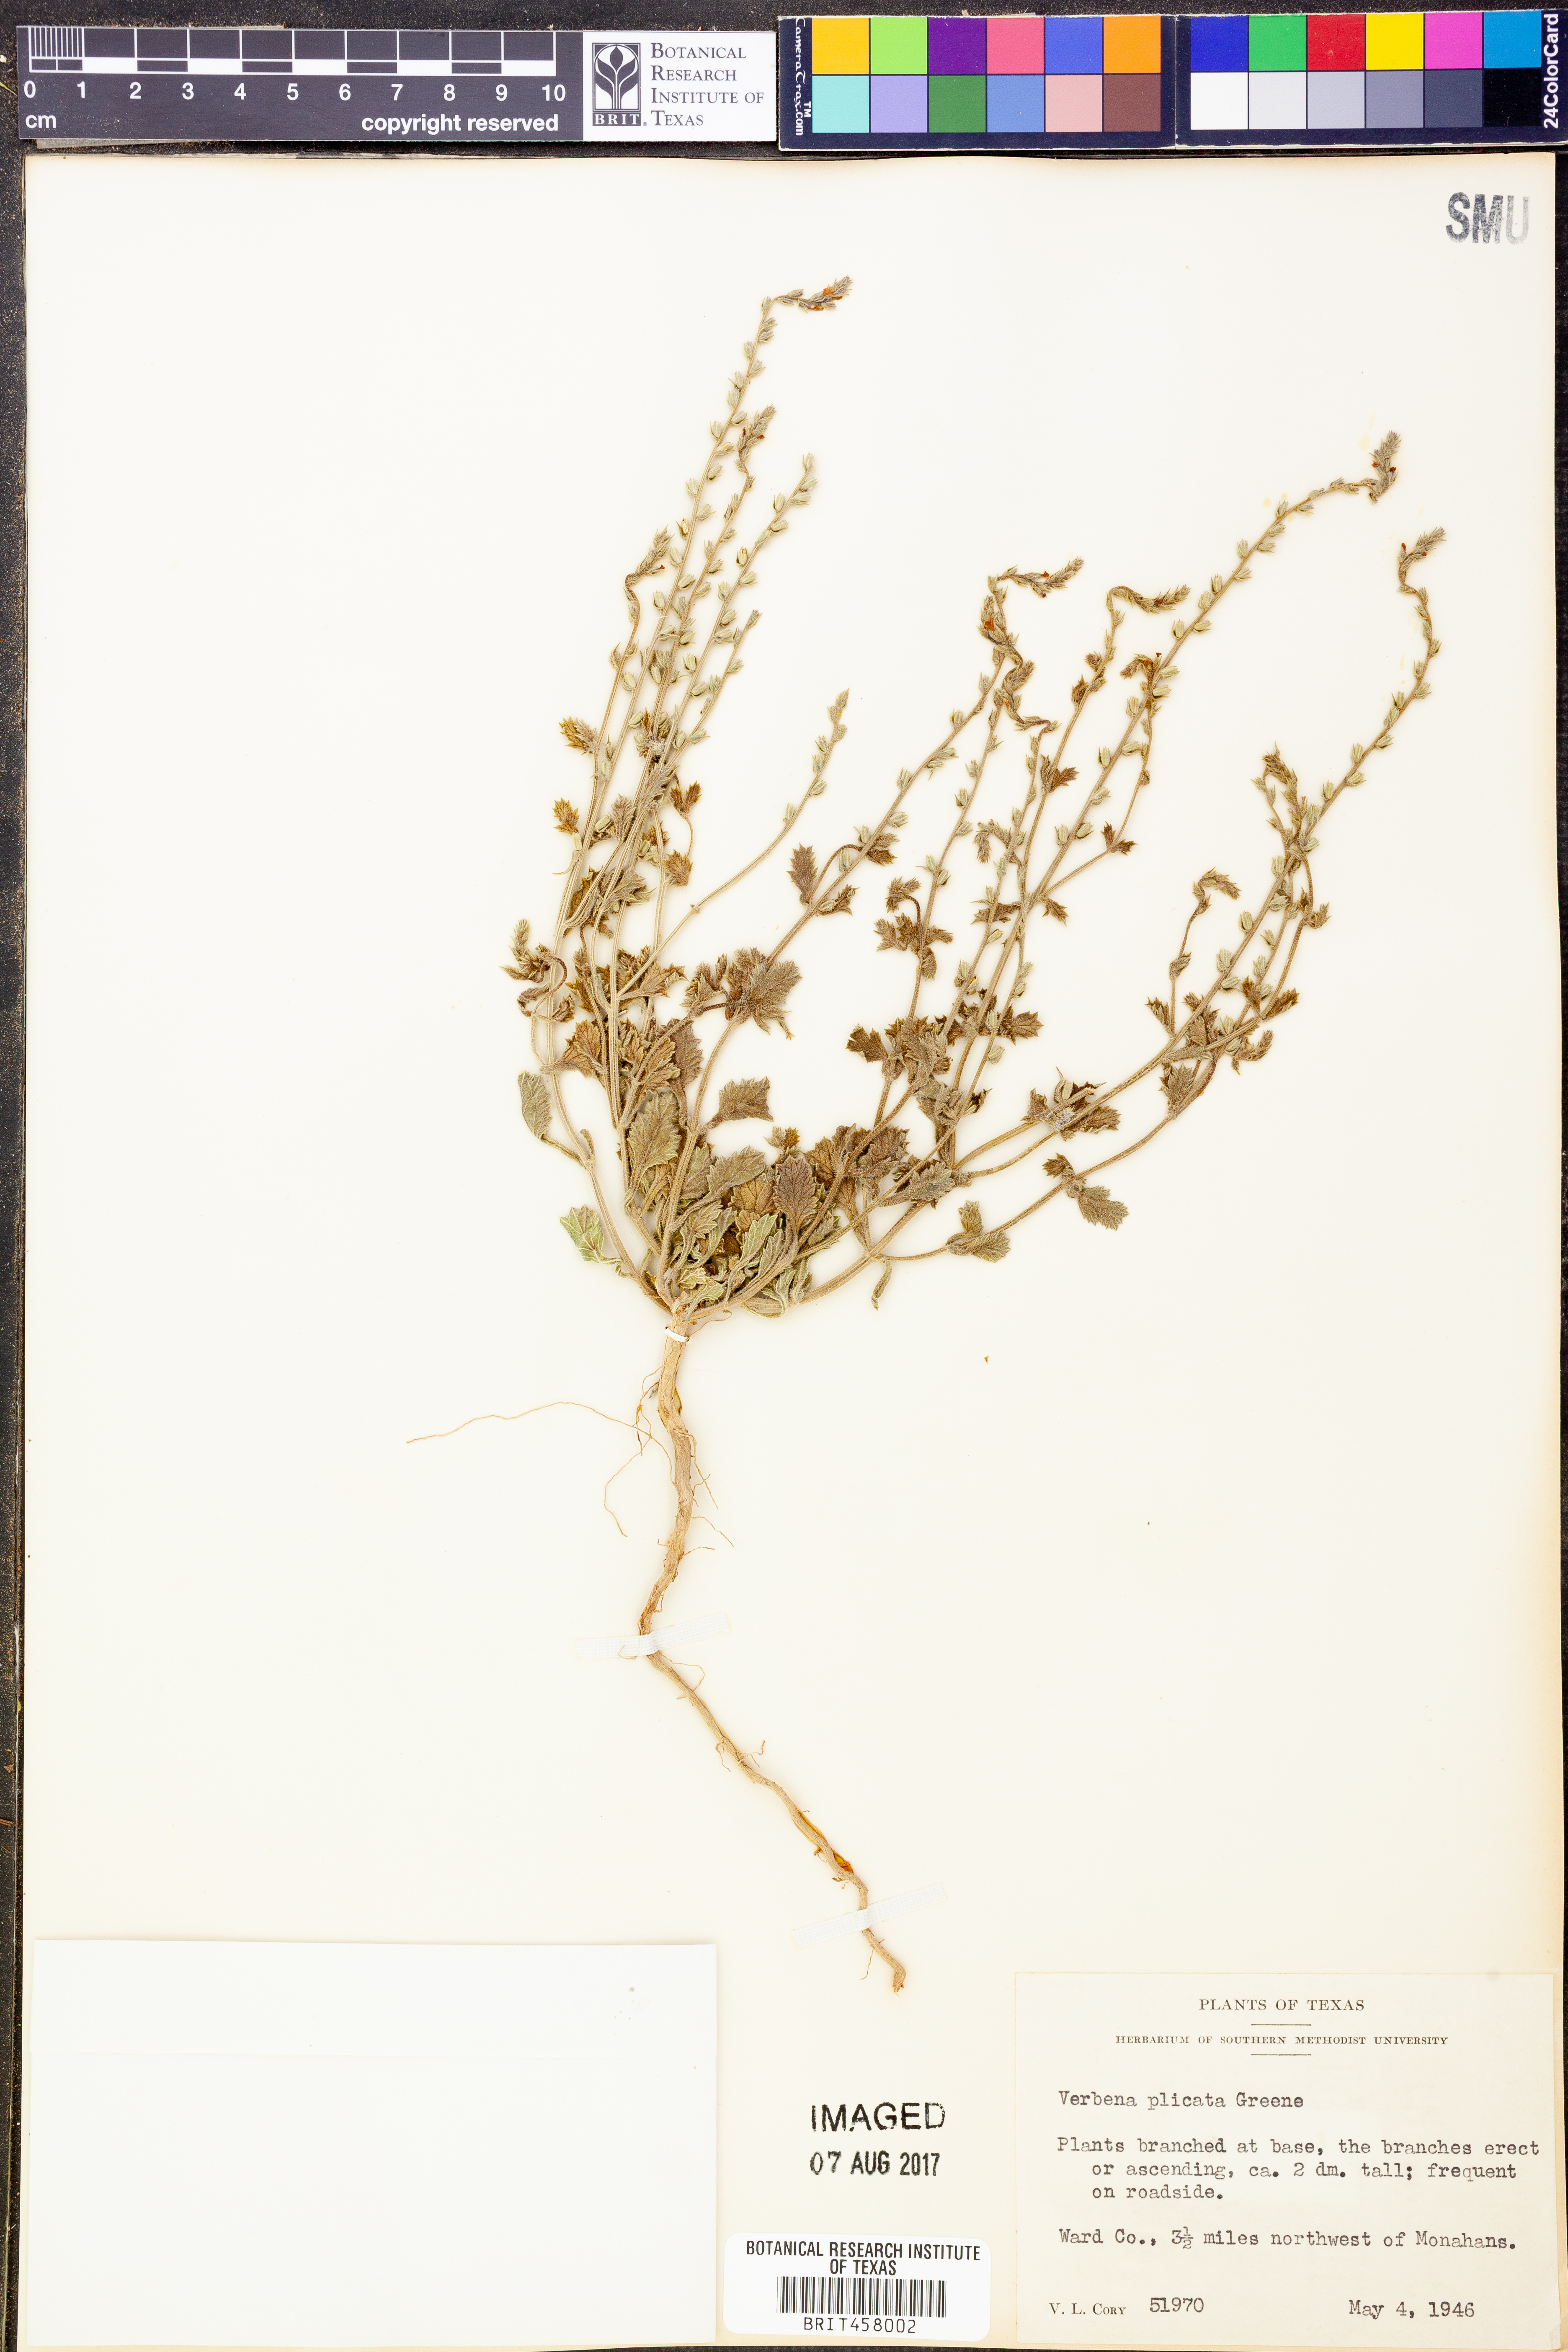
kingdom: Plantae
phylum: Tracheophyta
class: Magnoliopsida
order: Lamiales
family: Verbenaceae
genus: Verbena
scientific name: Verbena plicata
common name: Fan-leaf vervain
